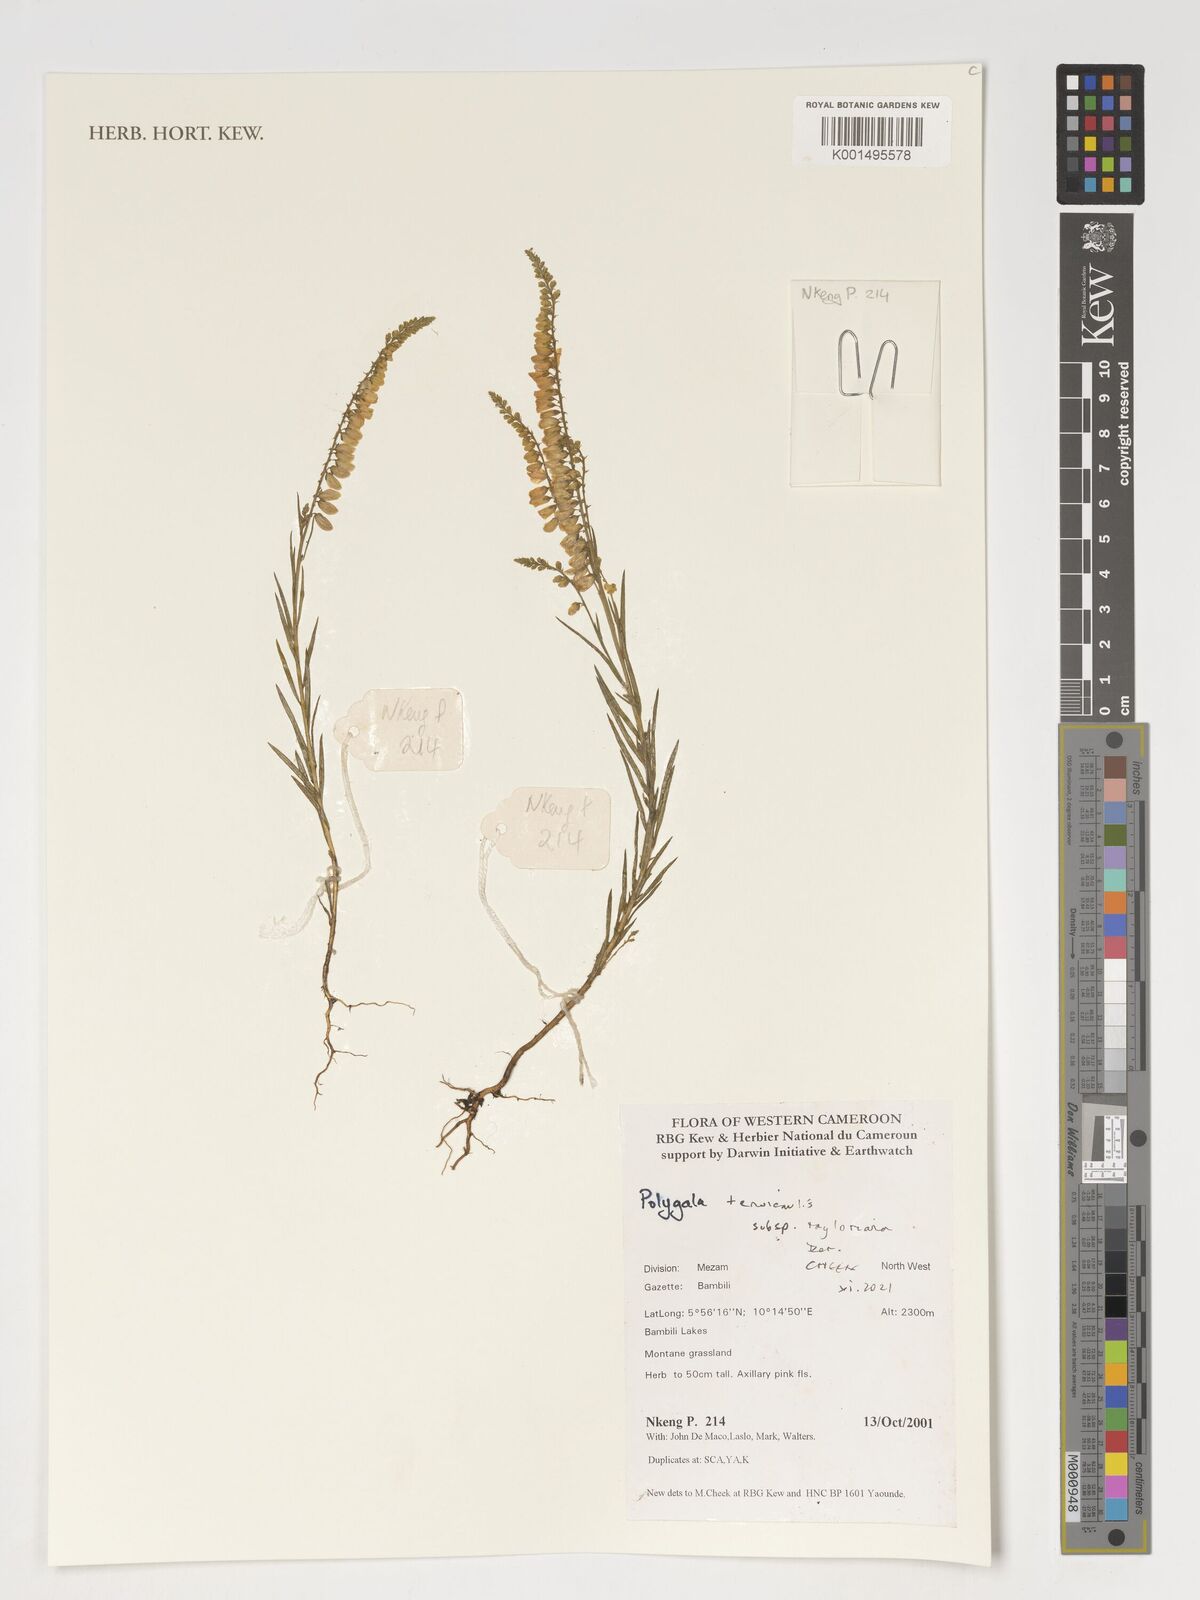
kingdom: Plantae
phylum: Tracheophyta
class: Magnoliopsida
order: Fabales
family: Polygalaceae
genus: Polygala
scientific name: Polygala tenuicaulis
